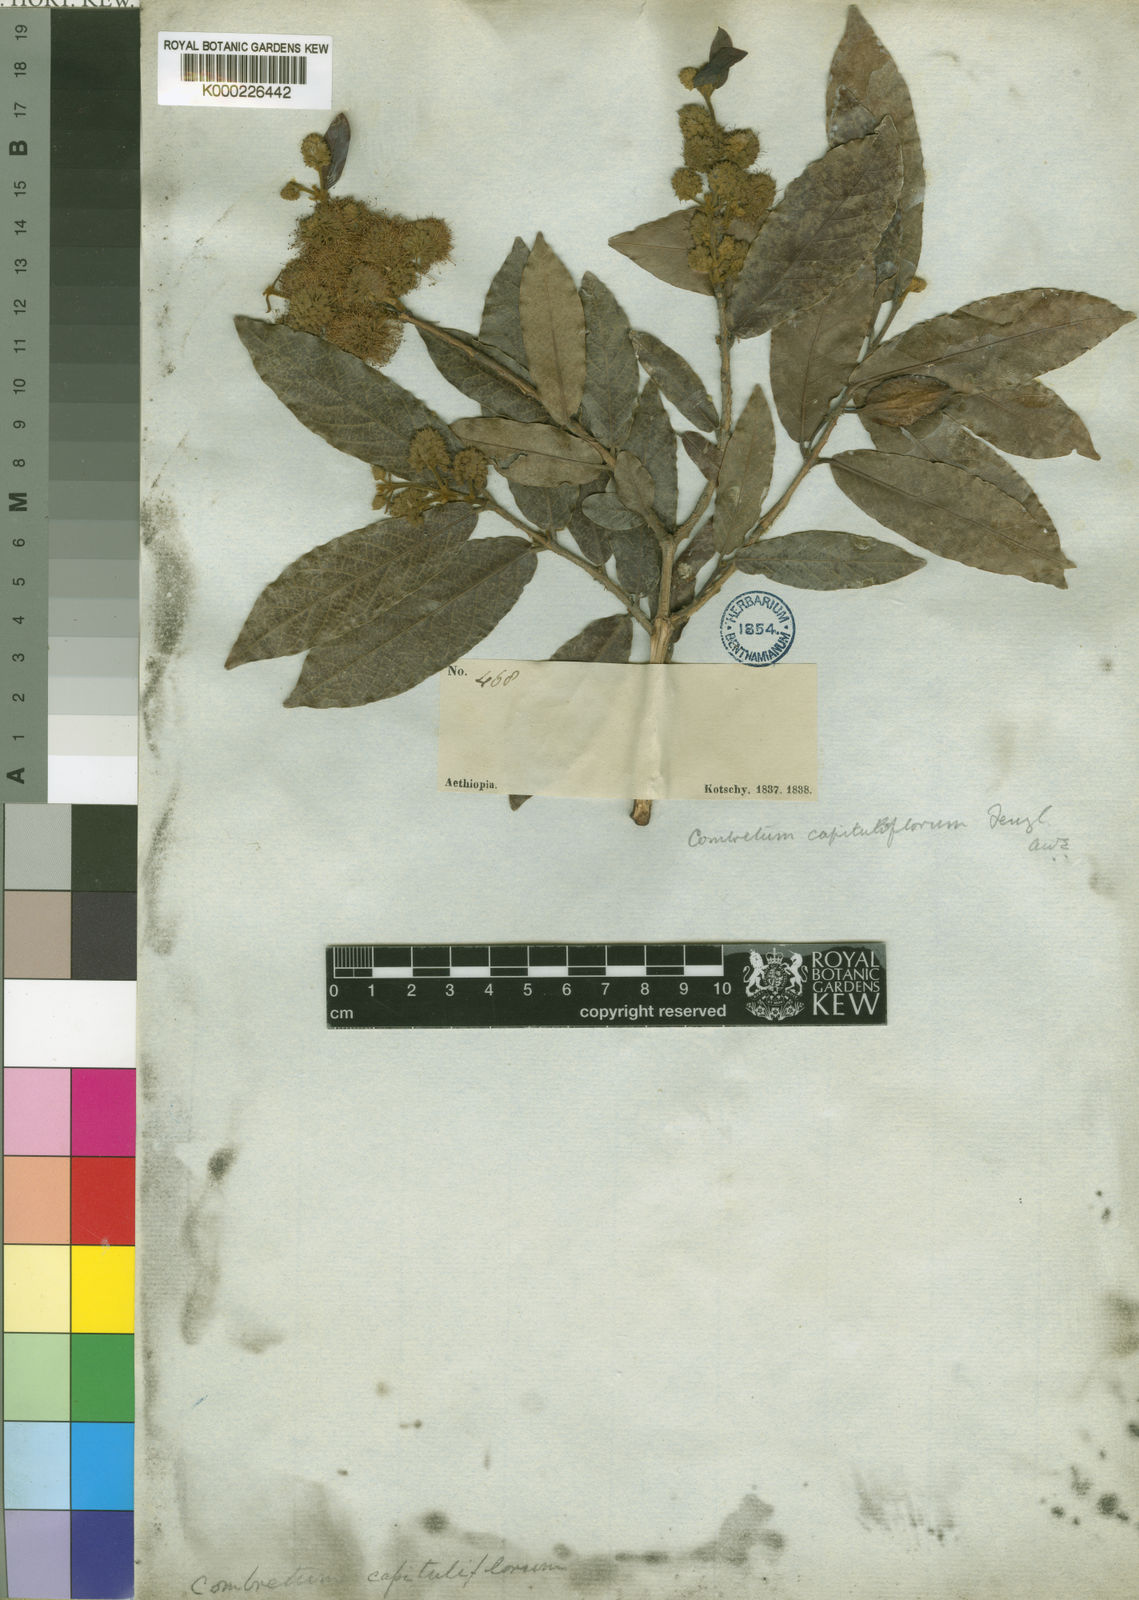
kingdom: Plantae
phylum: Tracheophyta
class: Magnoliopsida
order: Myrtales
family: Combretaceae
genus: Combretum
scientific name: Combretum capituliflorum
